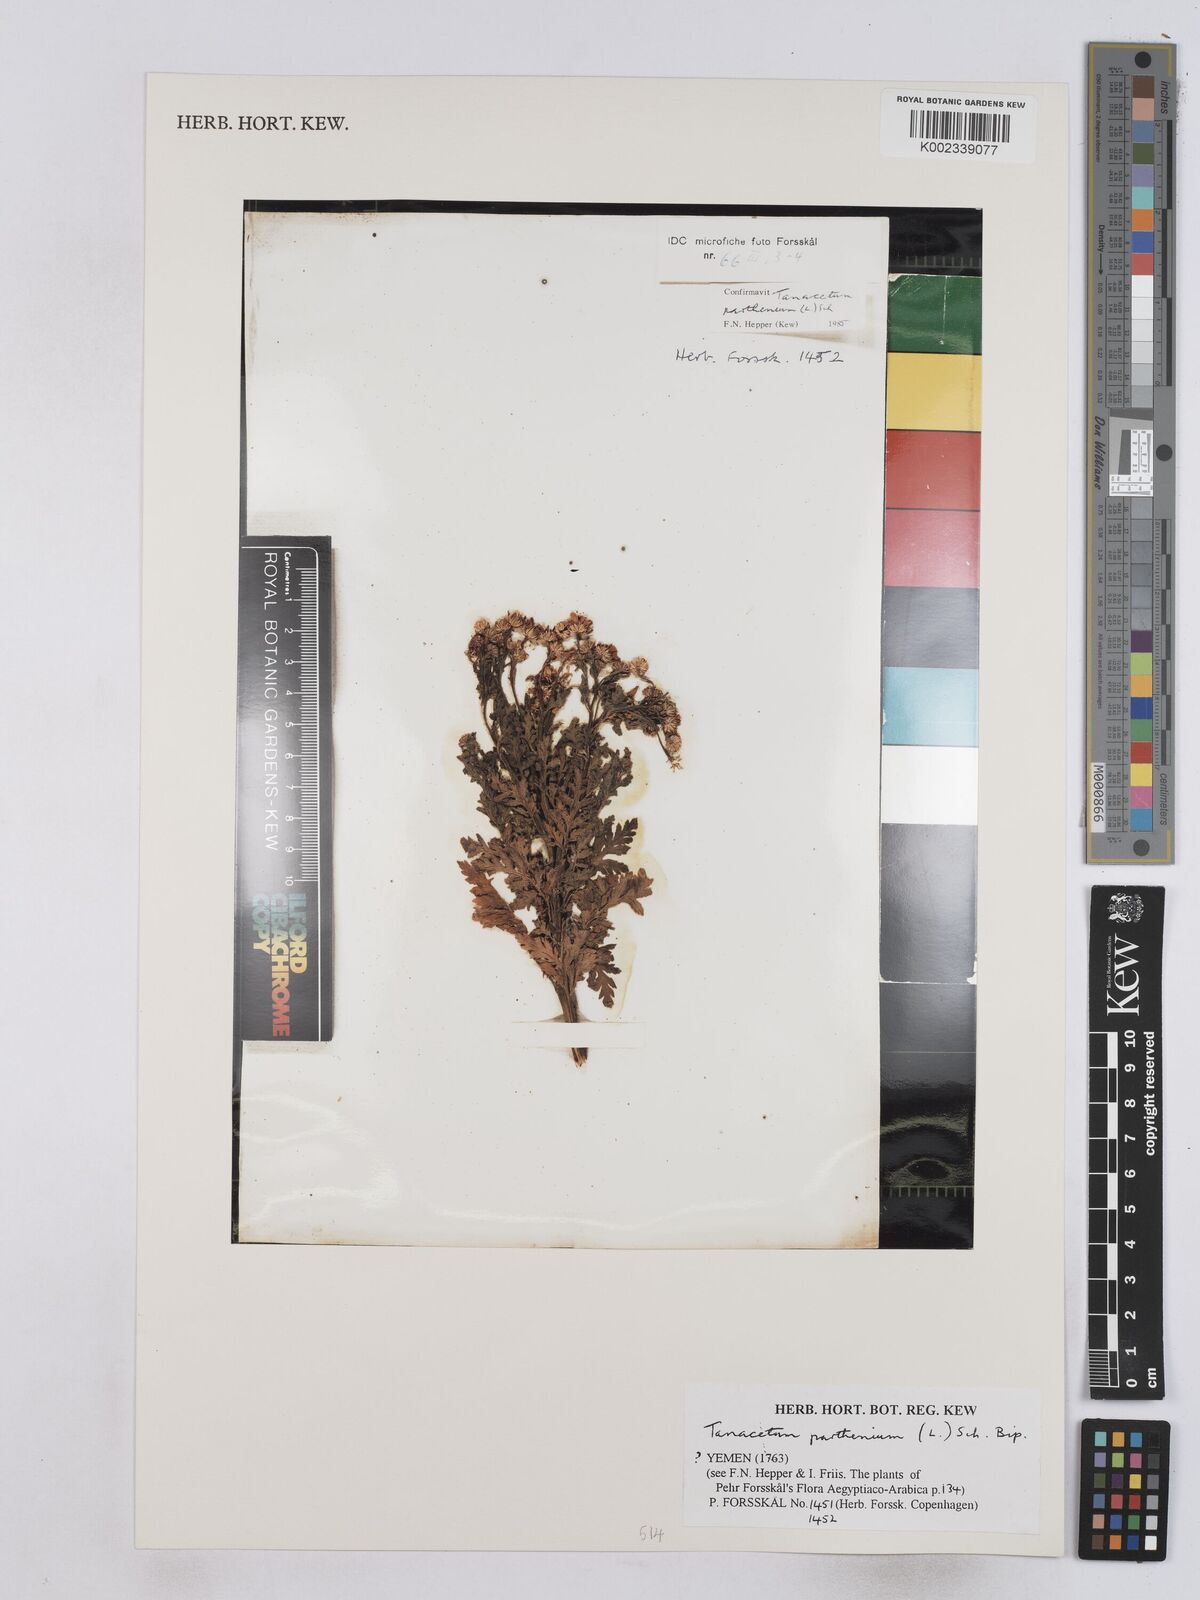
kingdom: Plantae
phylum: Tracheophyta
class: Magnoliopsida
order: Asterales
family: Asteraceae
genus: Tanacetum
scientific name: Tanacetum parthenium
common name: Feverfew
